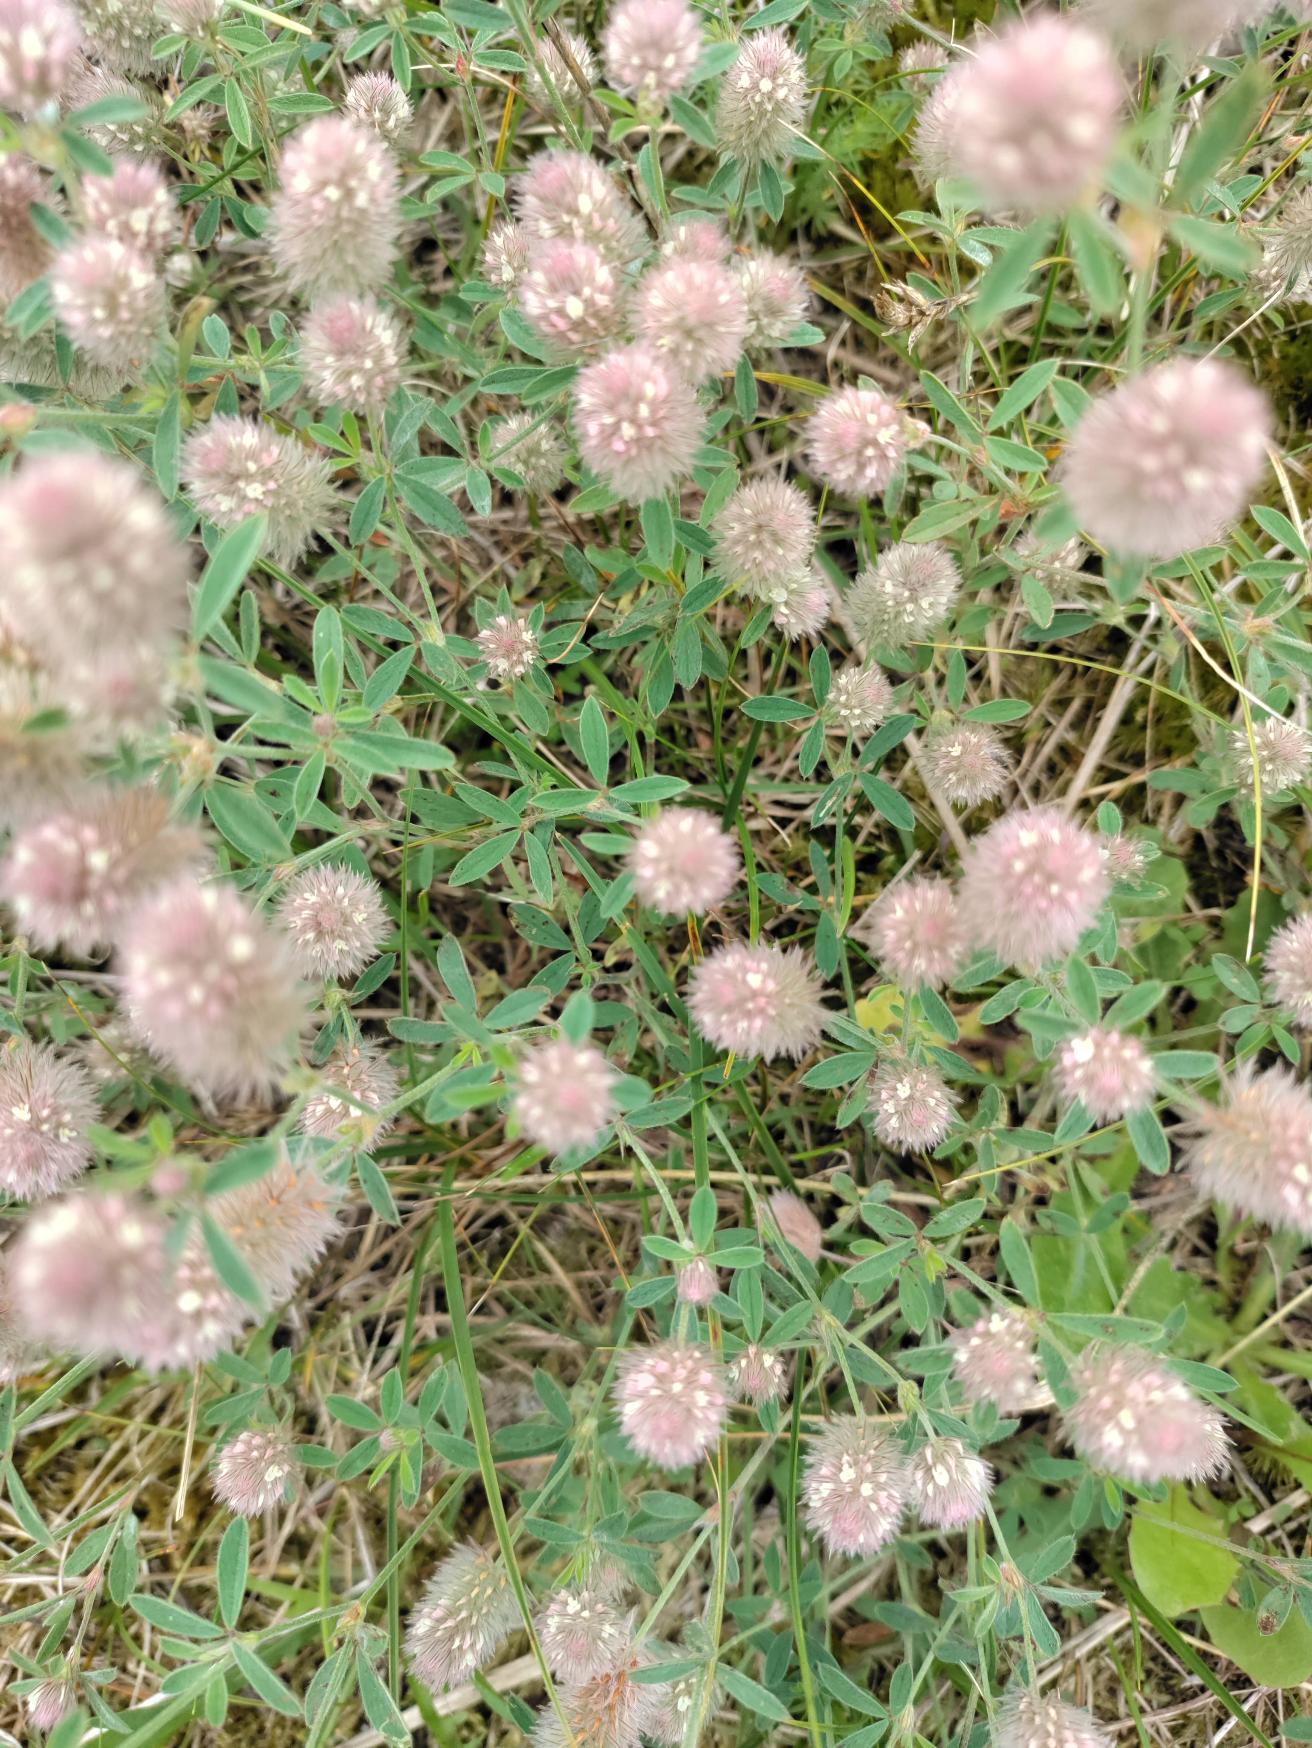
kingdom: Plantae
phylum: Tracheophyta
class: Magnoliopsida
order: Fabales
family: Fabaceae
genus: Trifolium
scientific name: Trifolium arvense
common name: Hare-kløver
